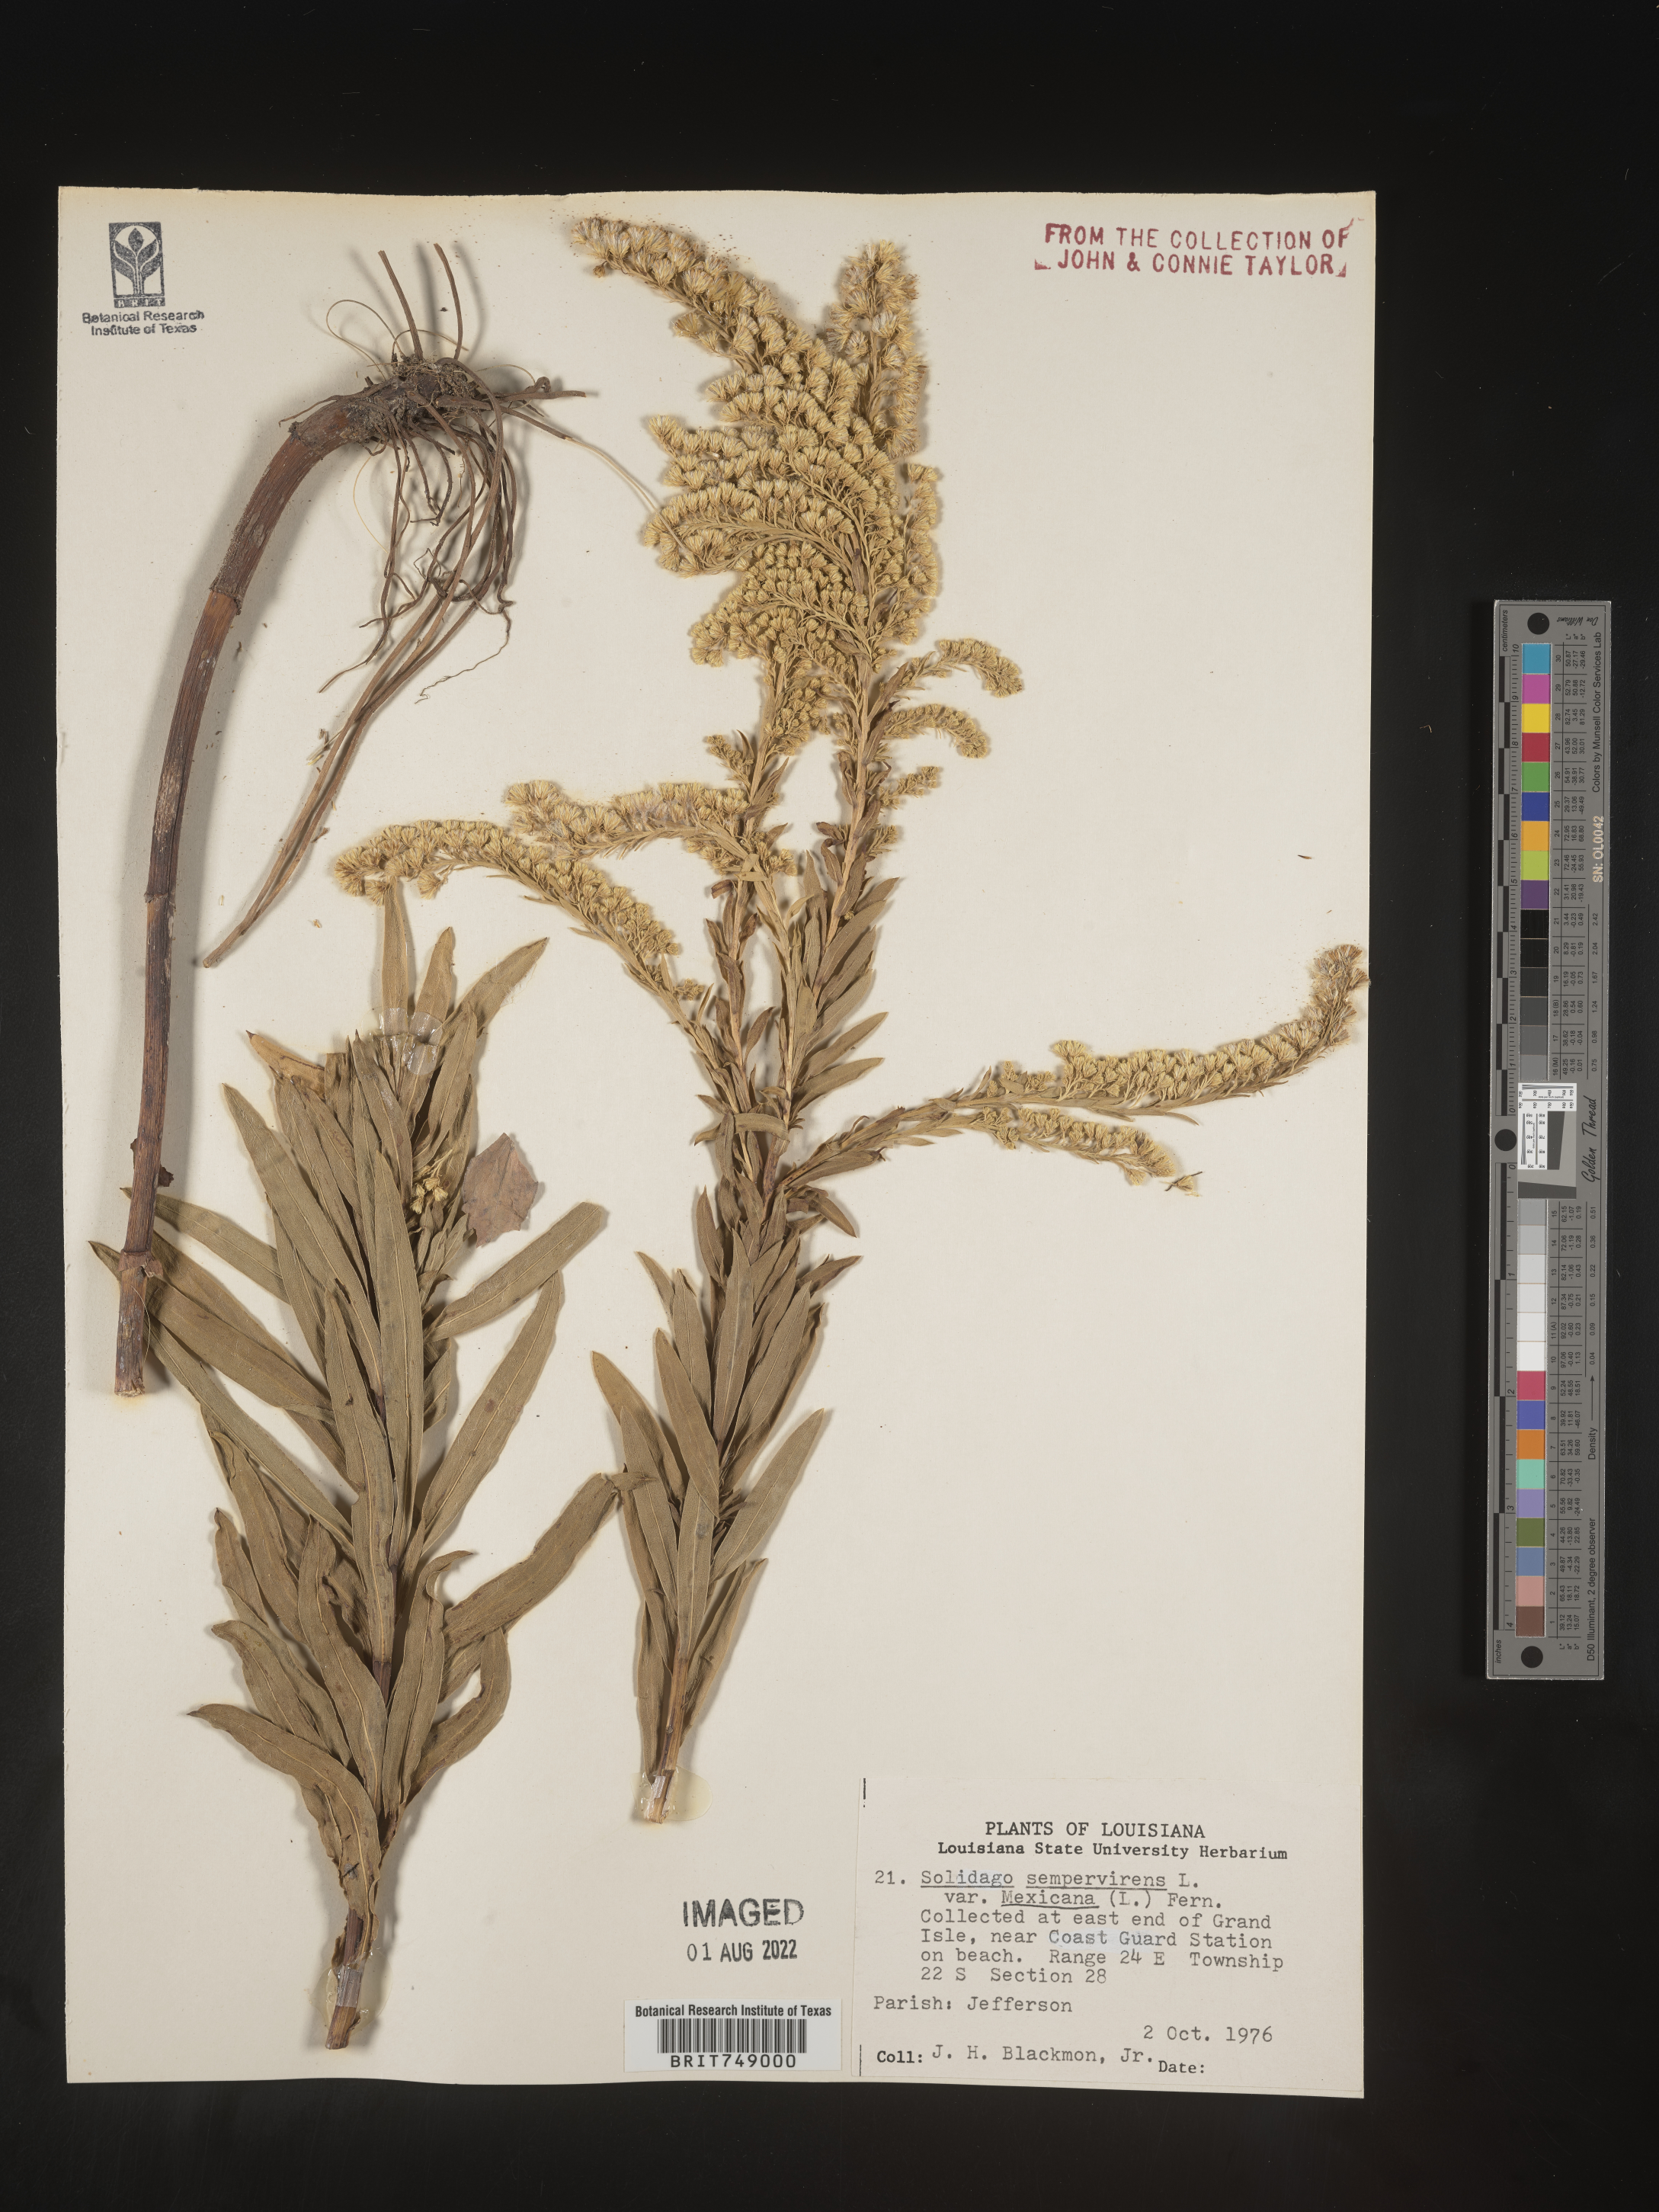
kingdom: Plantae
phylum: Tracheophyta
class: Magnoliopsida
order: Asterales
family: Asteraceae
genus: Solidago
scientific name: Solidago sempervirens
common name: Salt-marsh goldenrod
